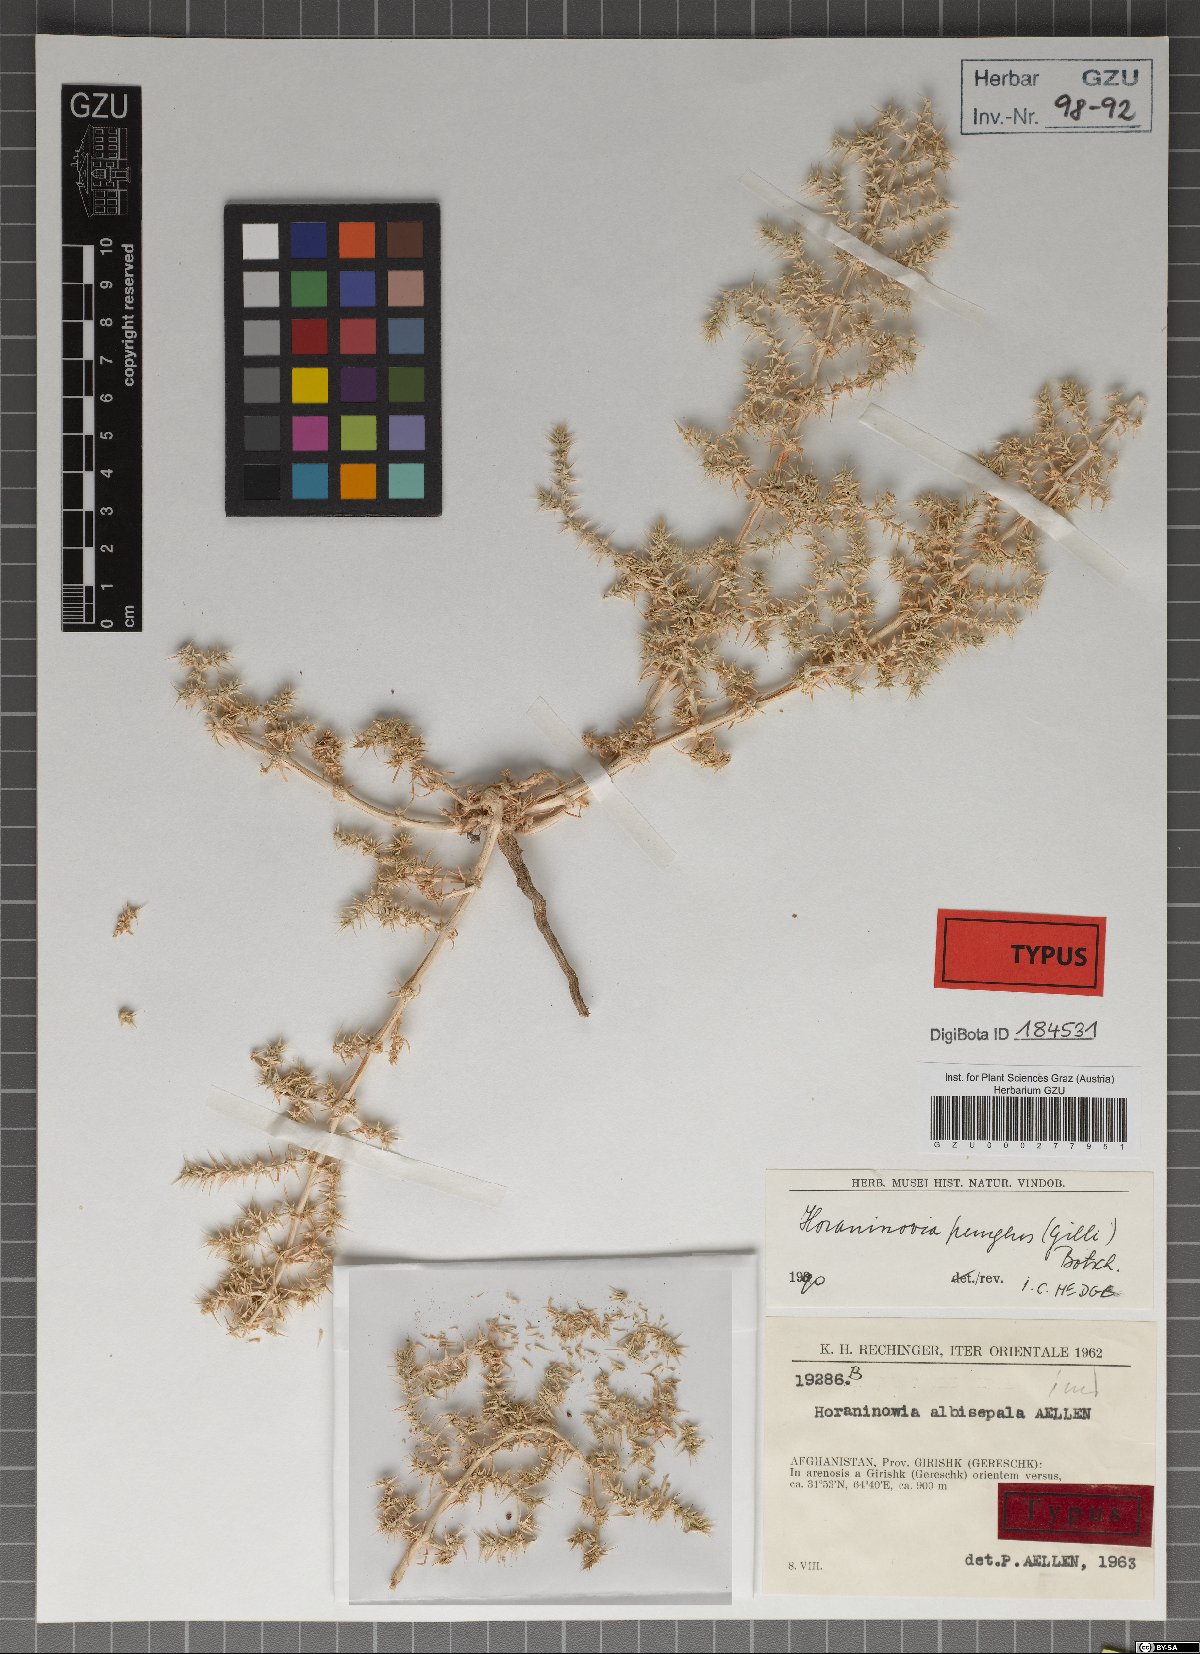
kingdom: Plantae
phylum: Tracheophyta
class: Magnoliopsida
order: Caryophyllales
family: Amaranthaceae
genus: Horaninovia
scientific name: Horaninovia pungens
